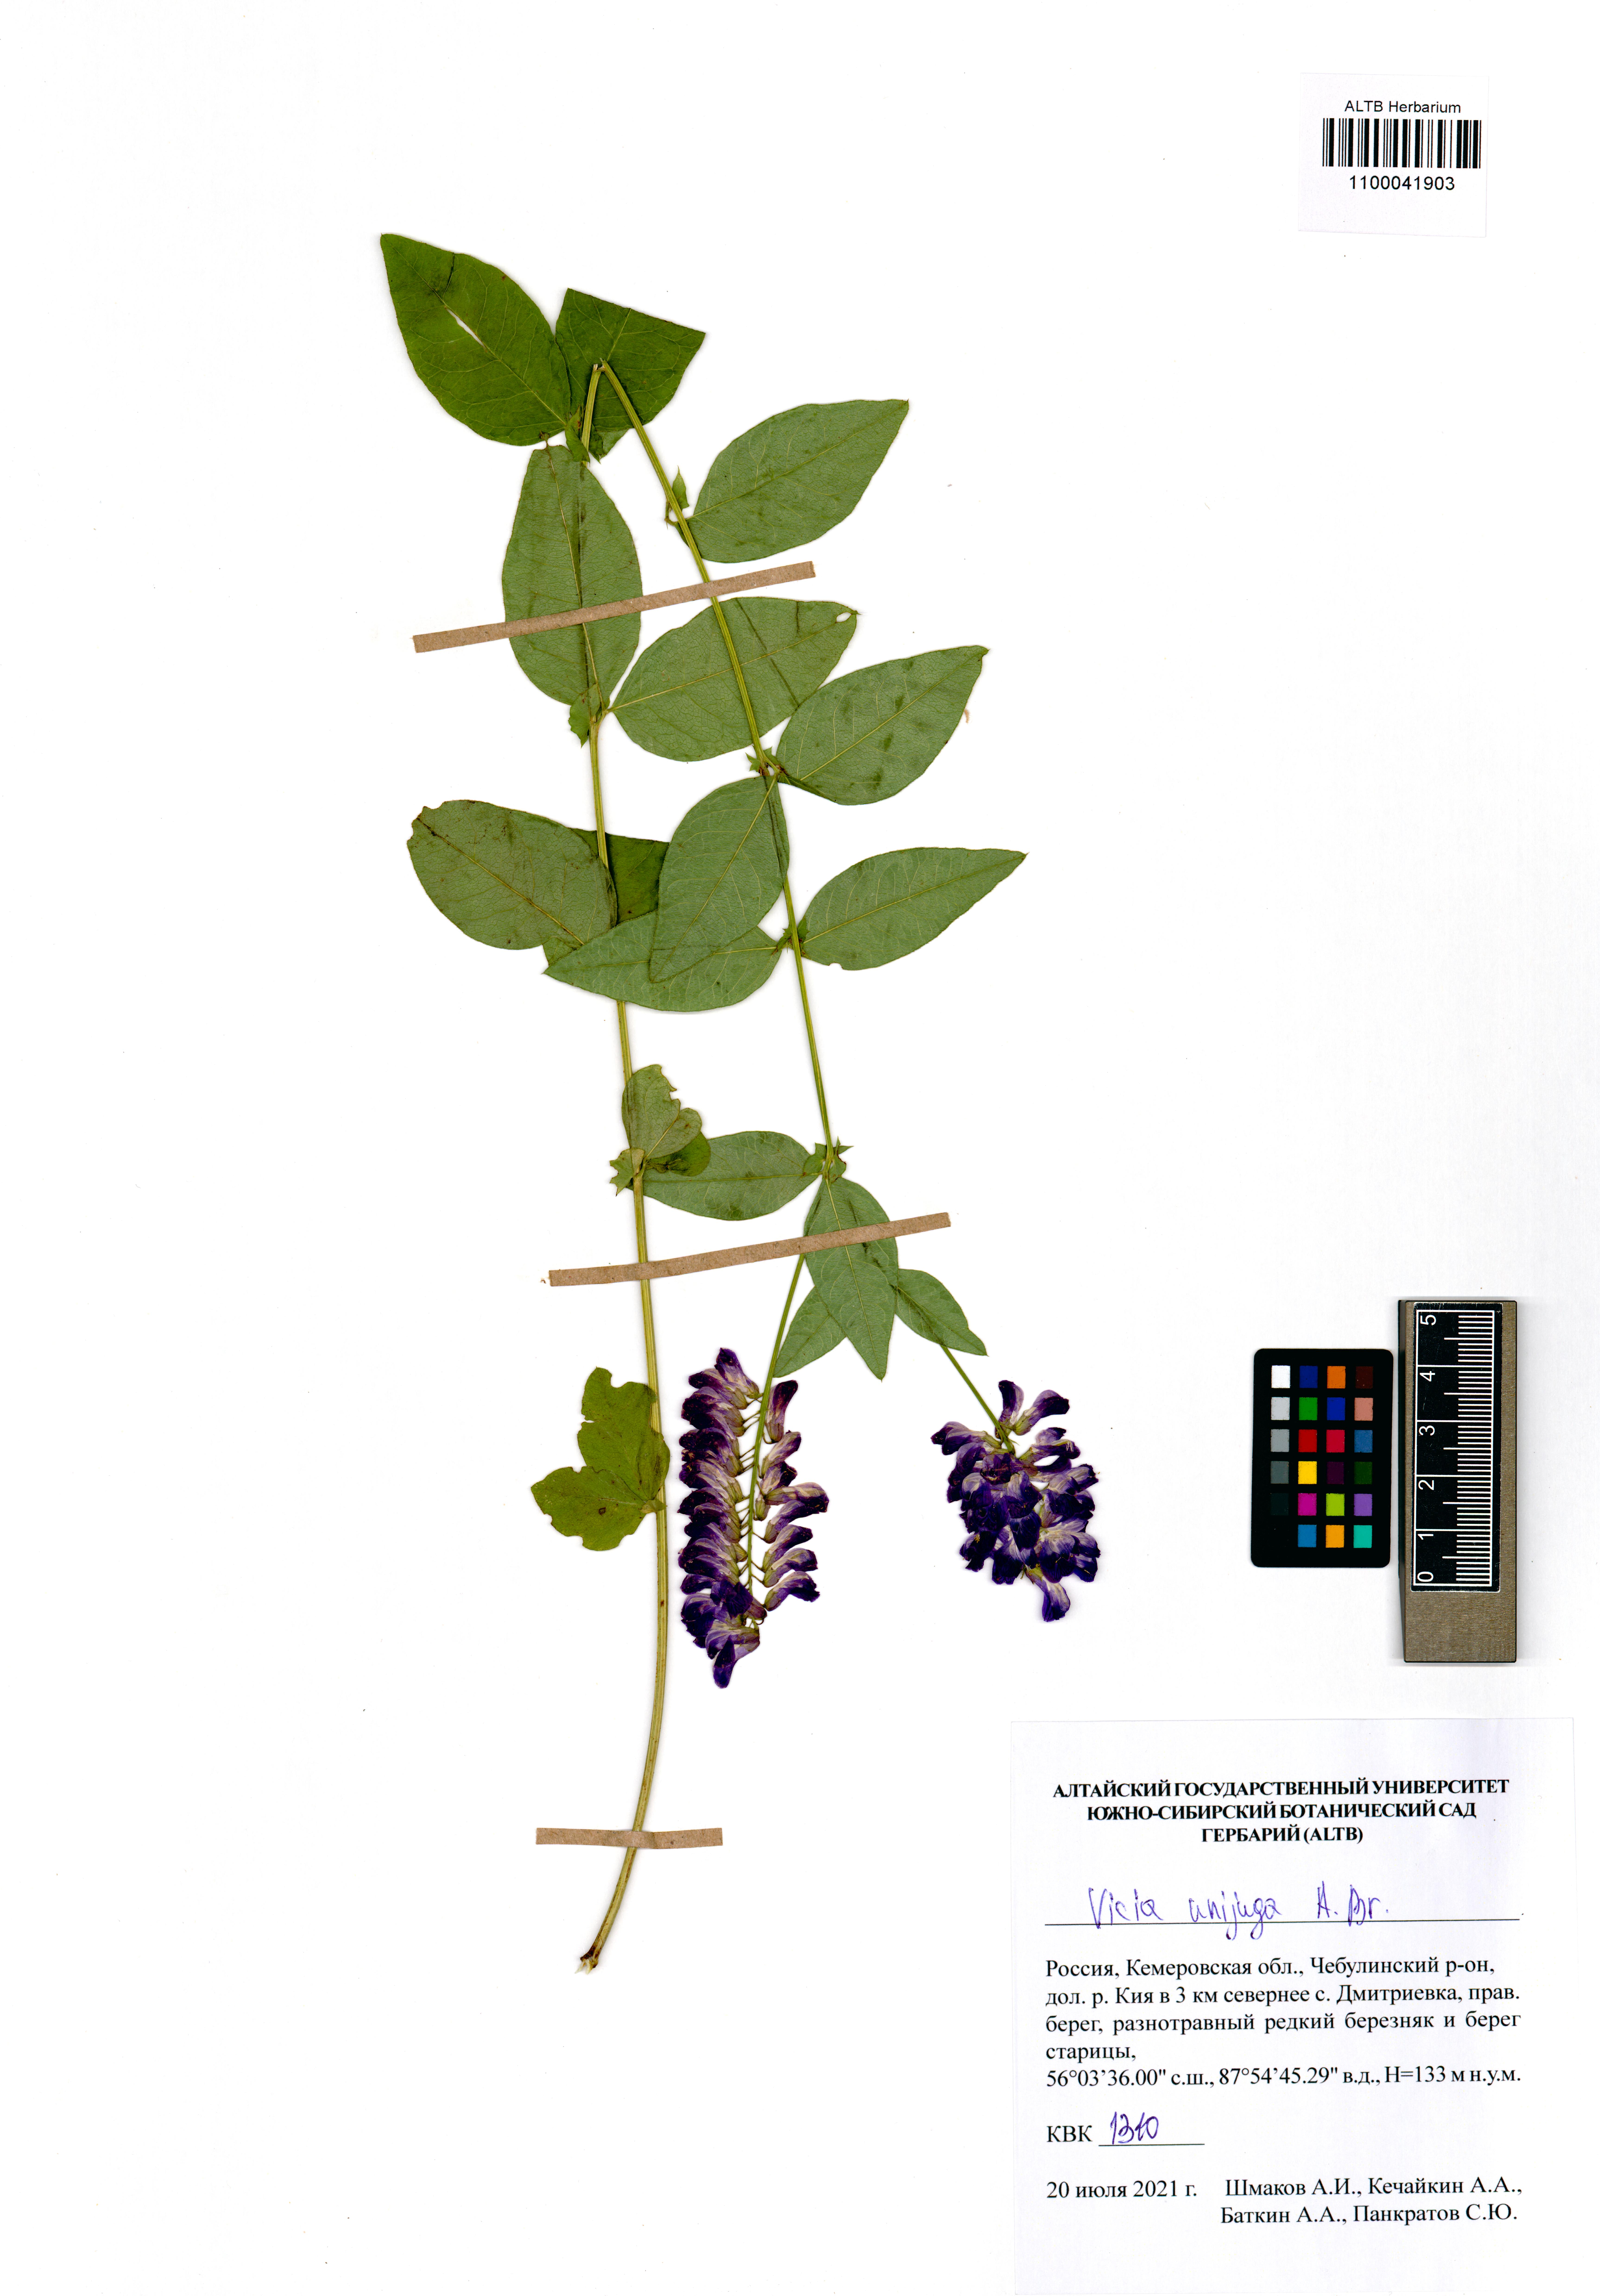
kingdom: Plantae
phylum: Tracheophyta
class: Magnoliopsida
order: Fabales
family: Fabaceae
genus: Vicia
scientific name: Vicia unijuga
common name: Two-leaf vetch
